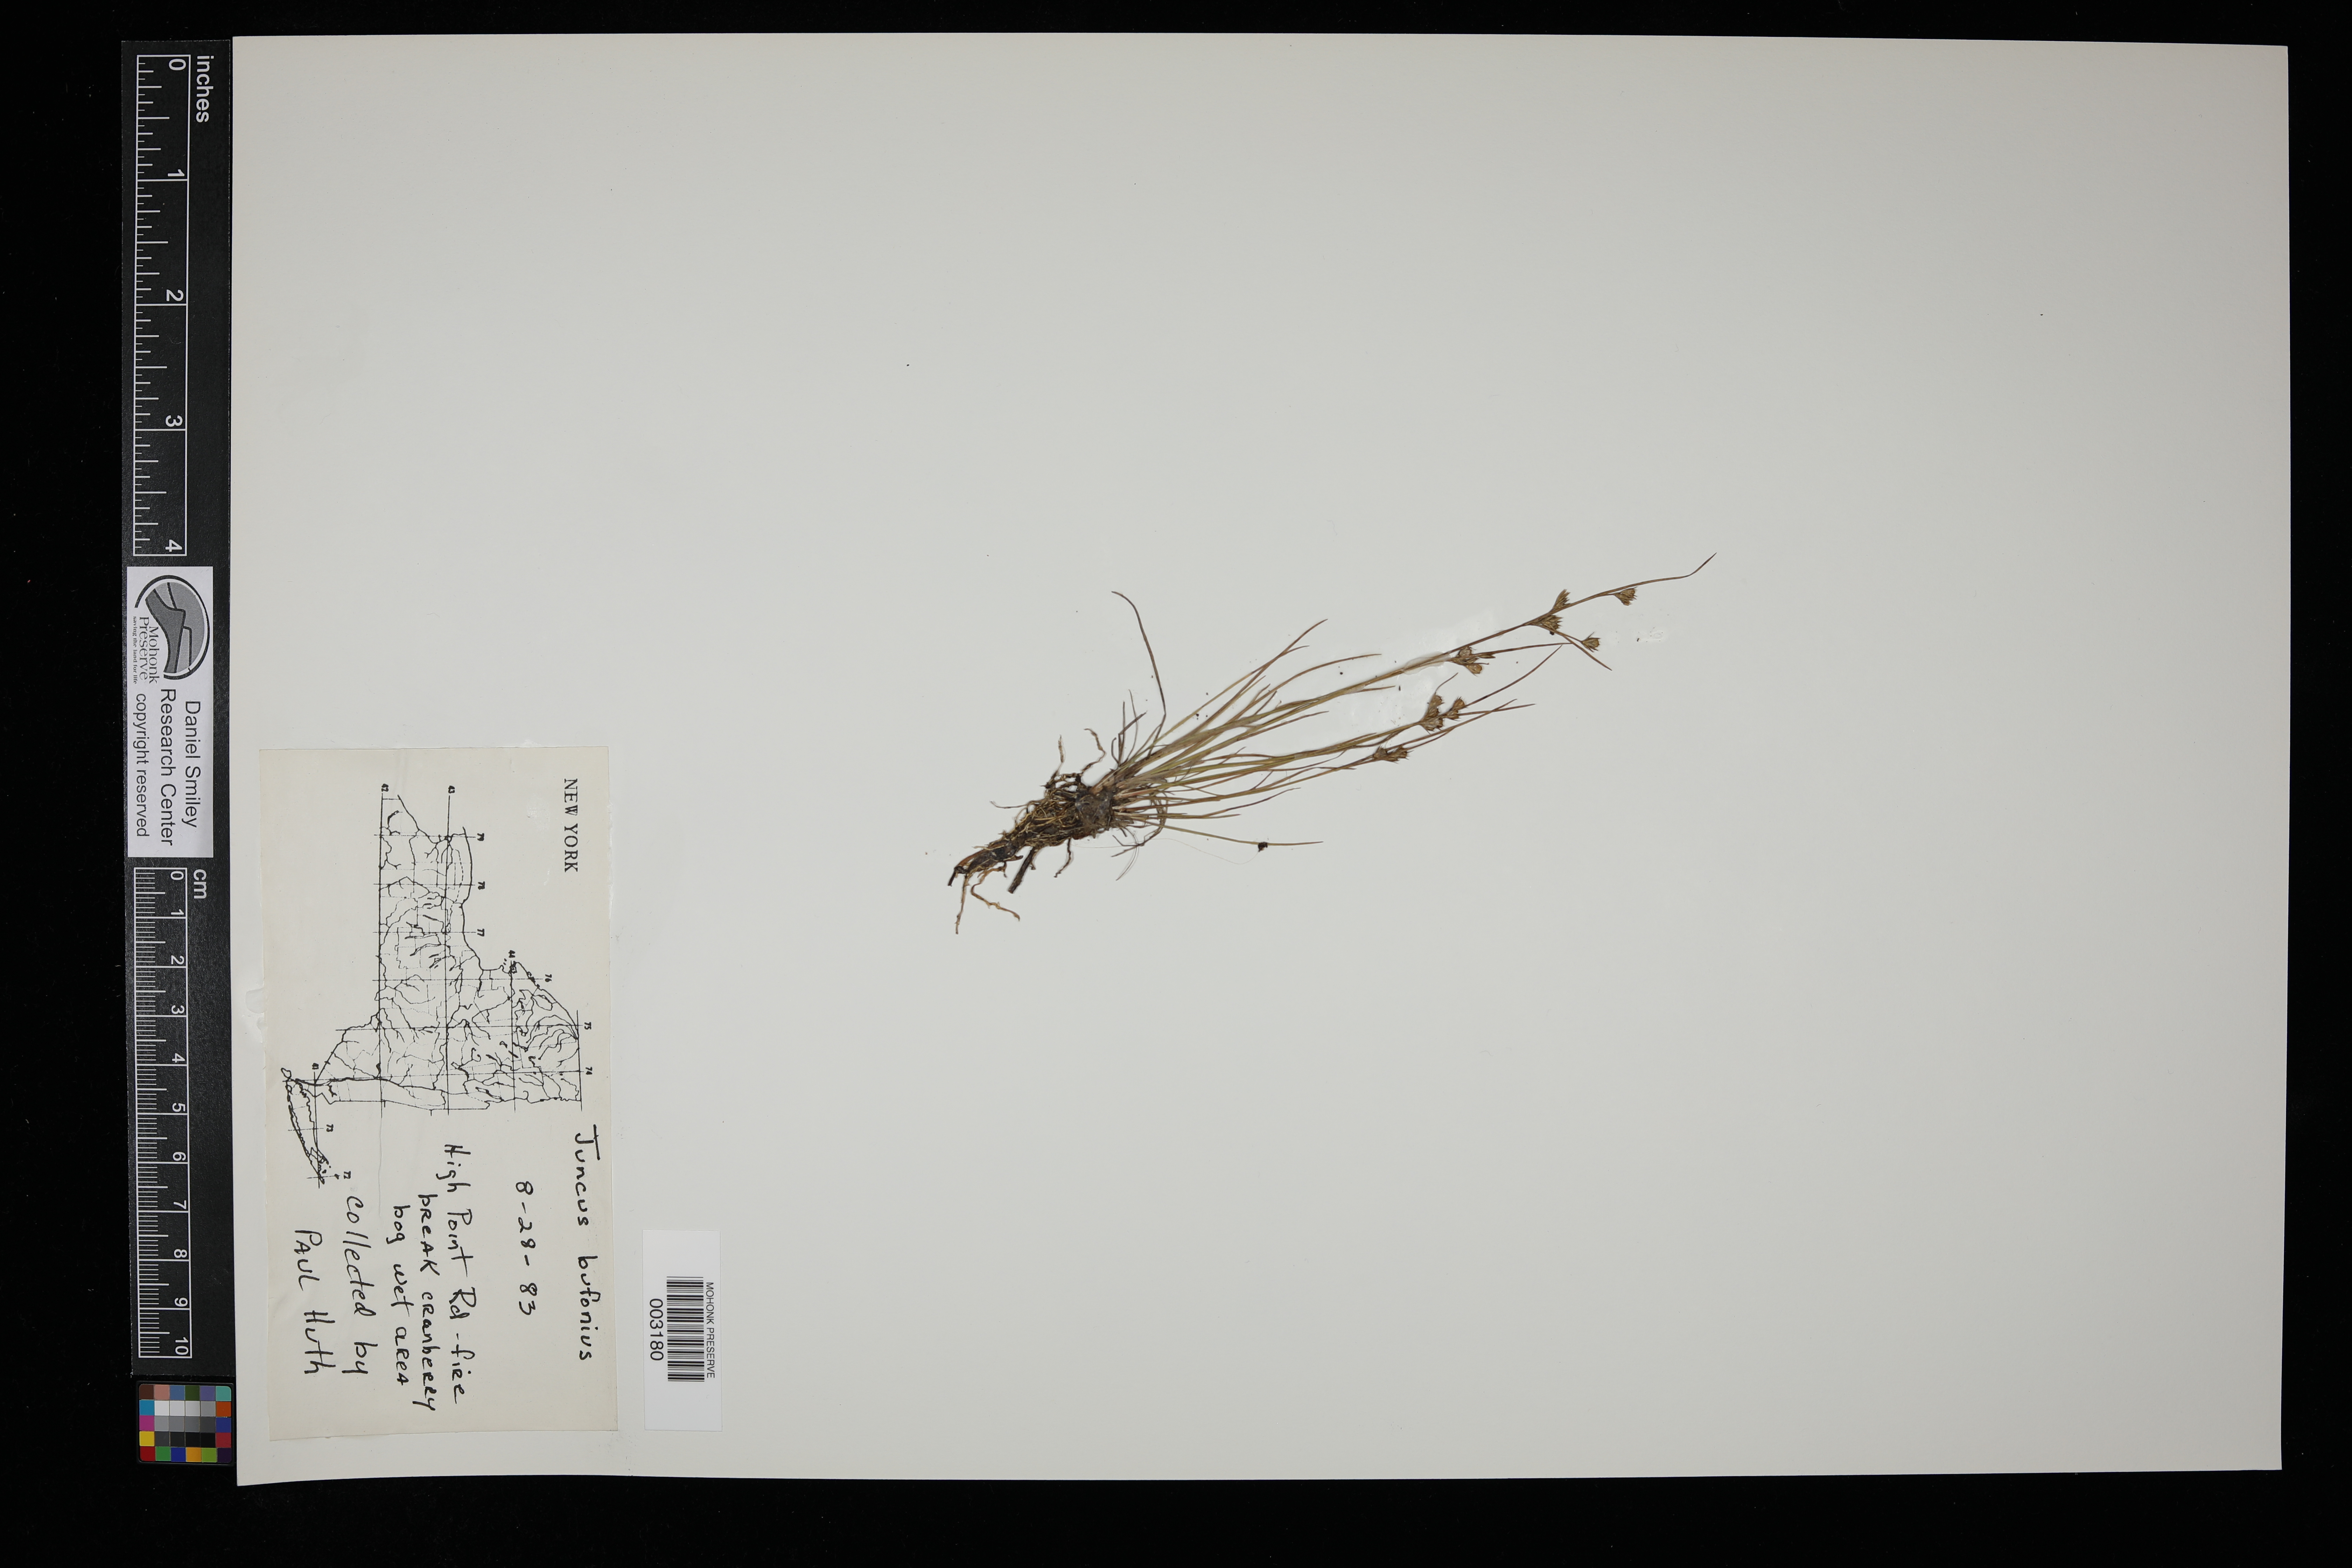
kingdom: Plantae
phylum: Tracheophyta
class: Liliopsida
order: Poales
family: Juncaceae
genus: Juncus
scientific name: Juncus bufonius
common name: Toad rush
